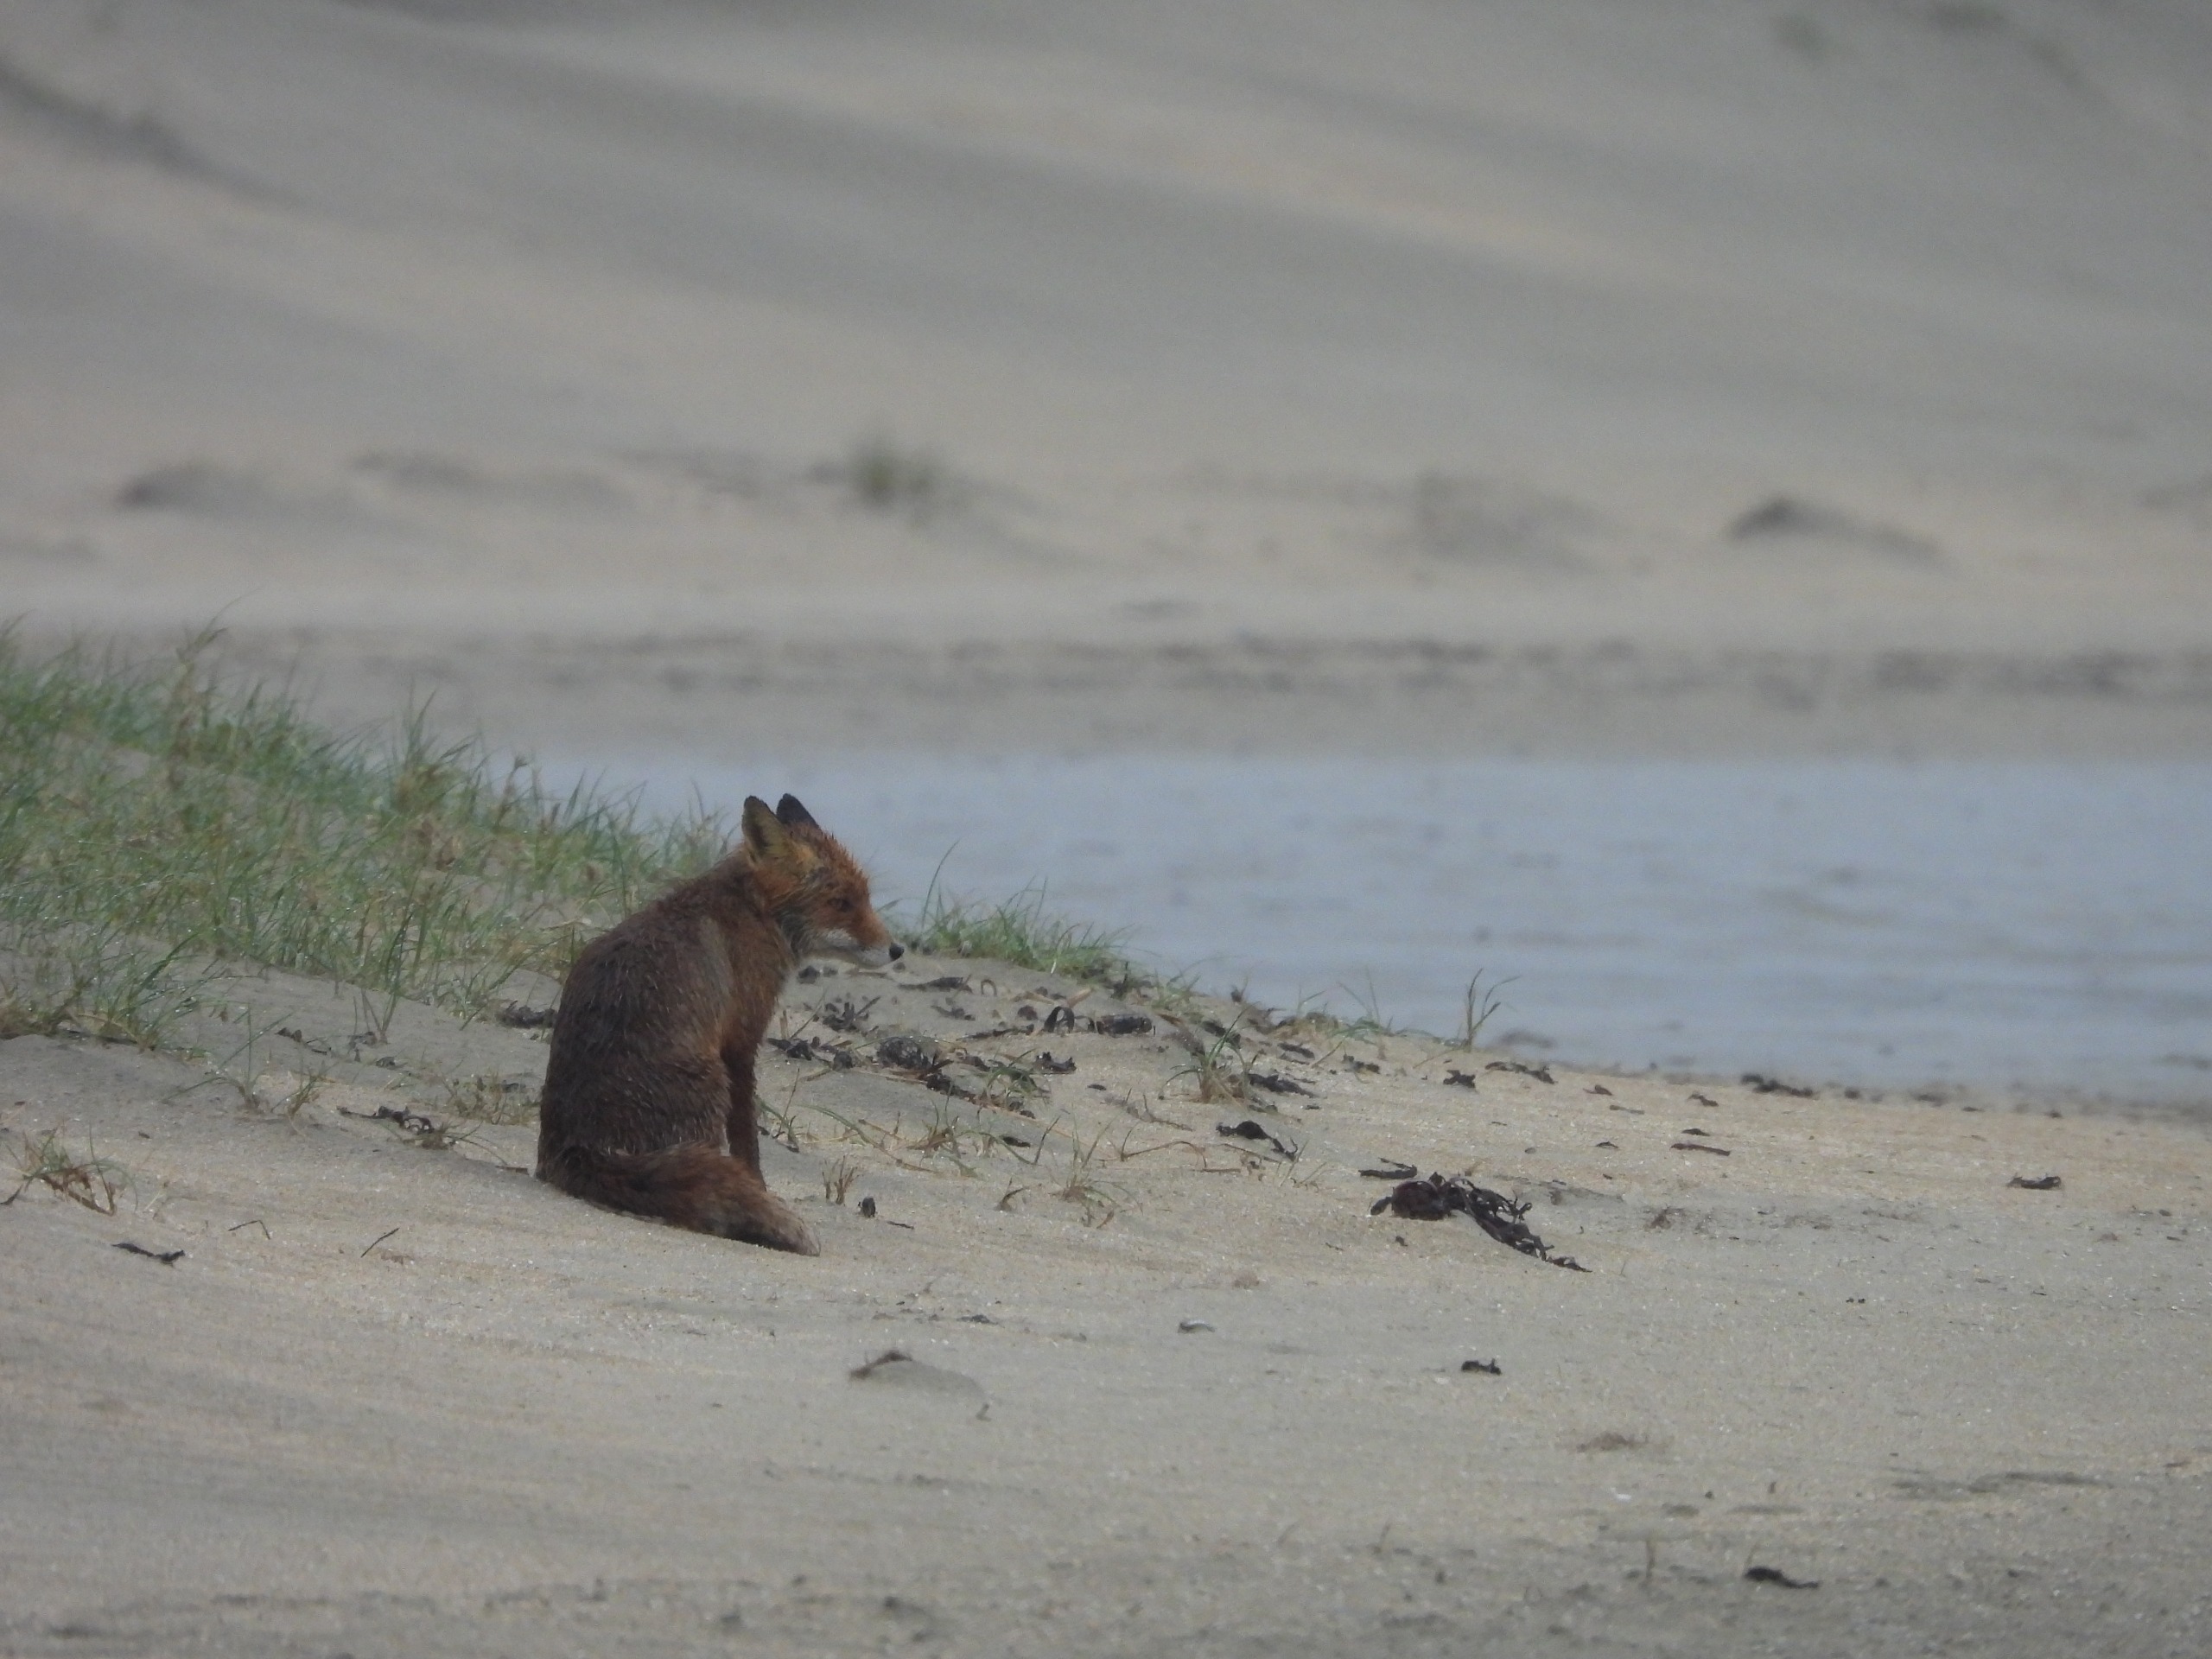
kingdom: Animalia
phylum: Chordata
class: Mammalia
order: Carnivora
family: Canidae
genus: Vulpes
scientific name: Vulpes vulpes
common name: Ræv
